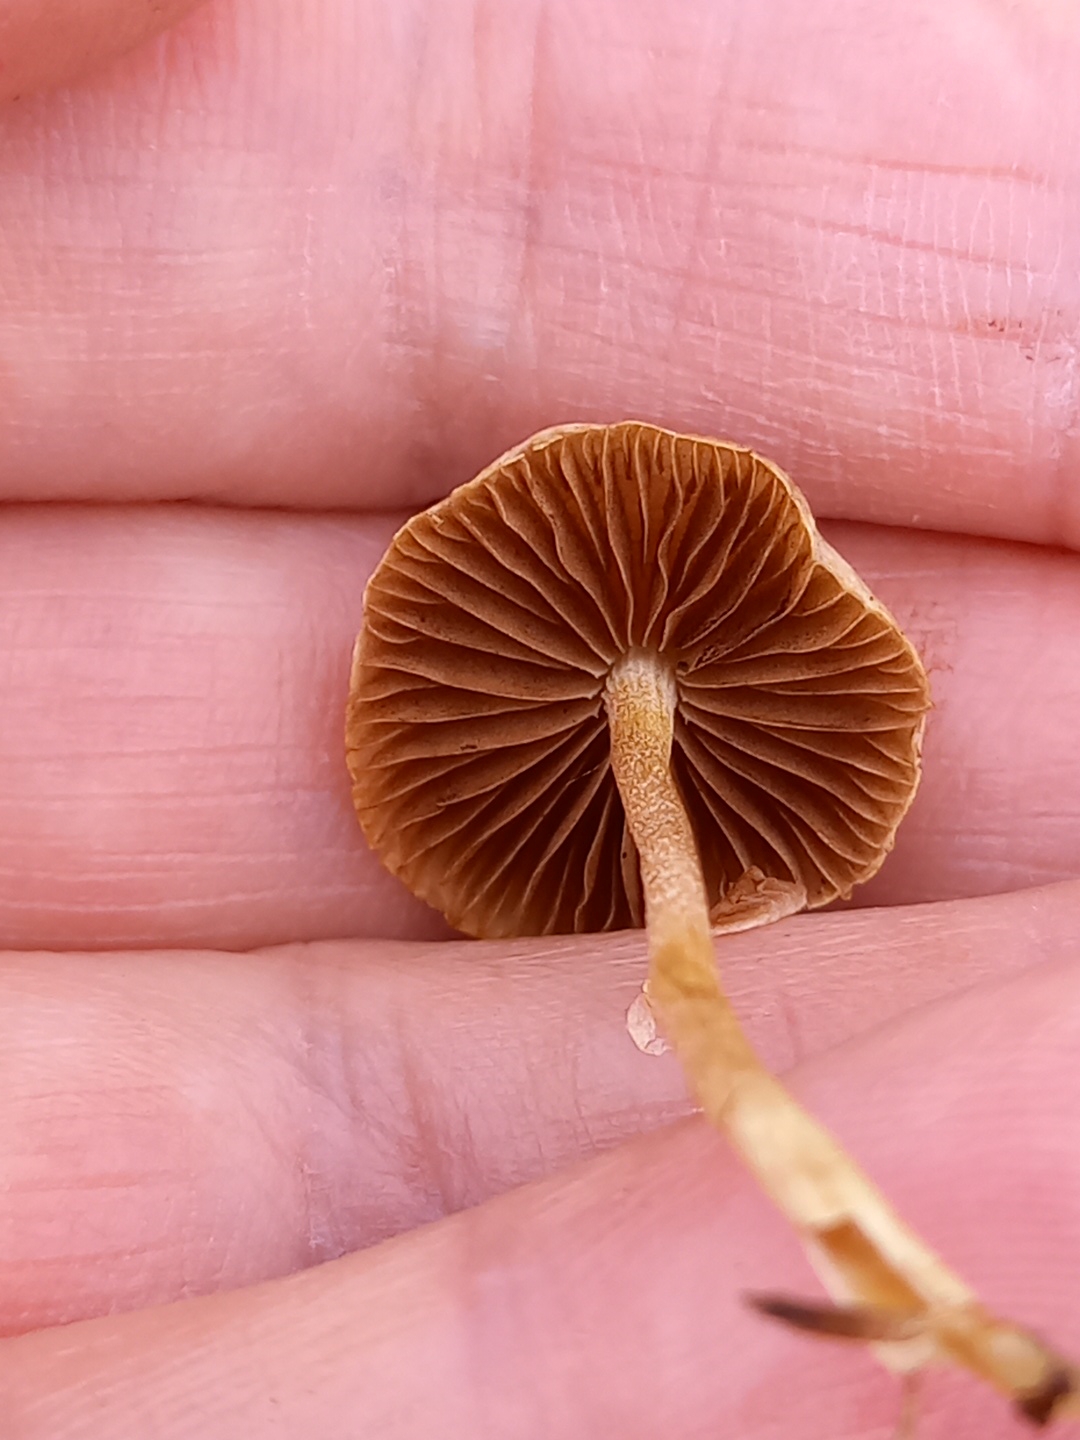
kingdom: Fungi
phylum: Basidiomycota
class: Agaricomycetes
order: Agaricales
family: Strophariaceae
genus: Agrocybe
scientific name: Agrocybe pediades
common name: almindelig agerhat
